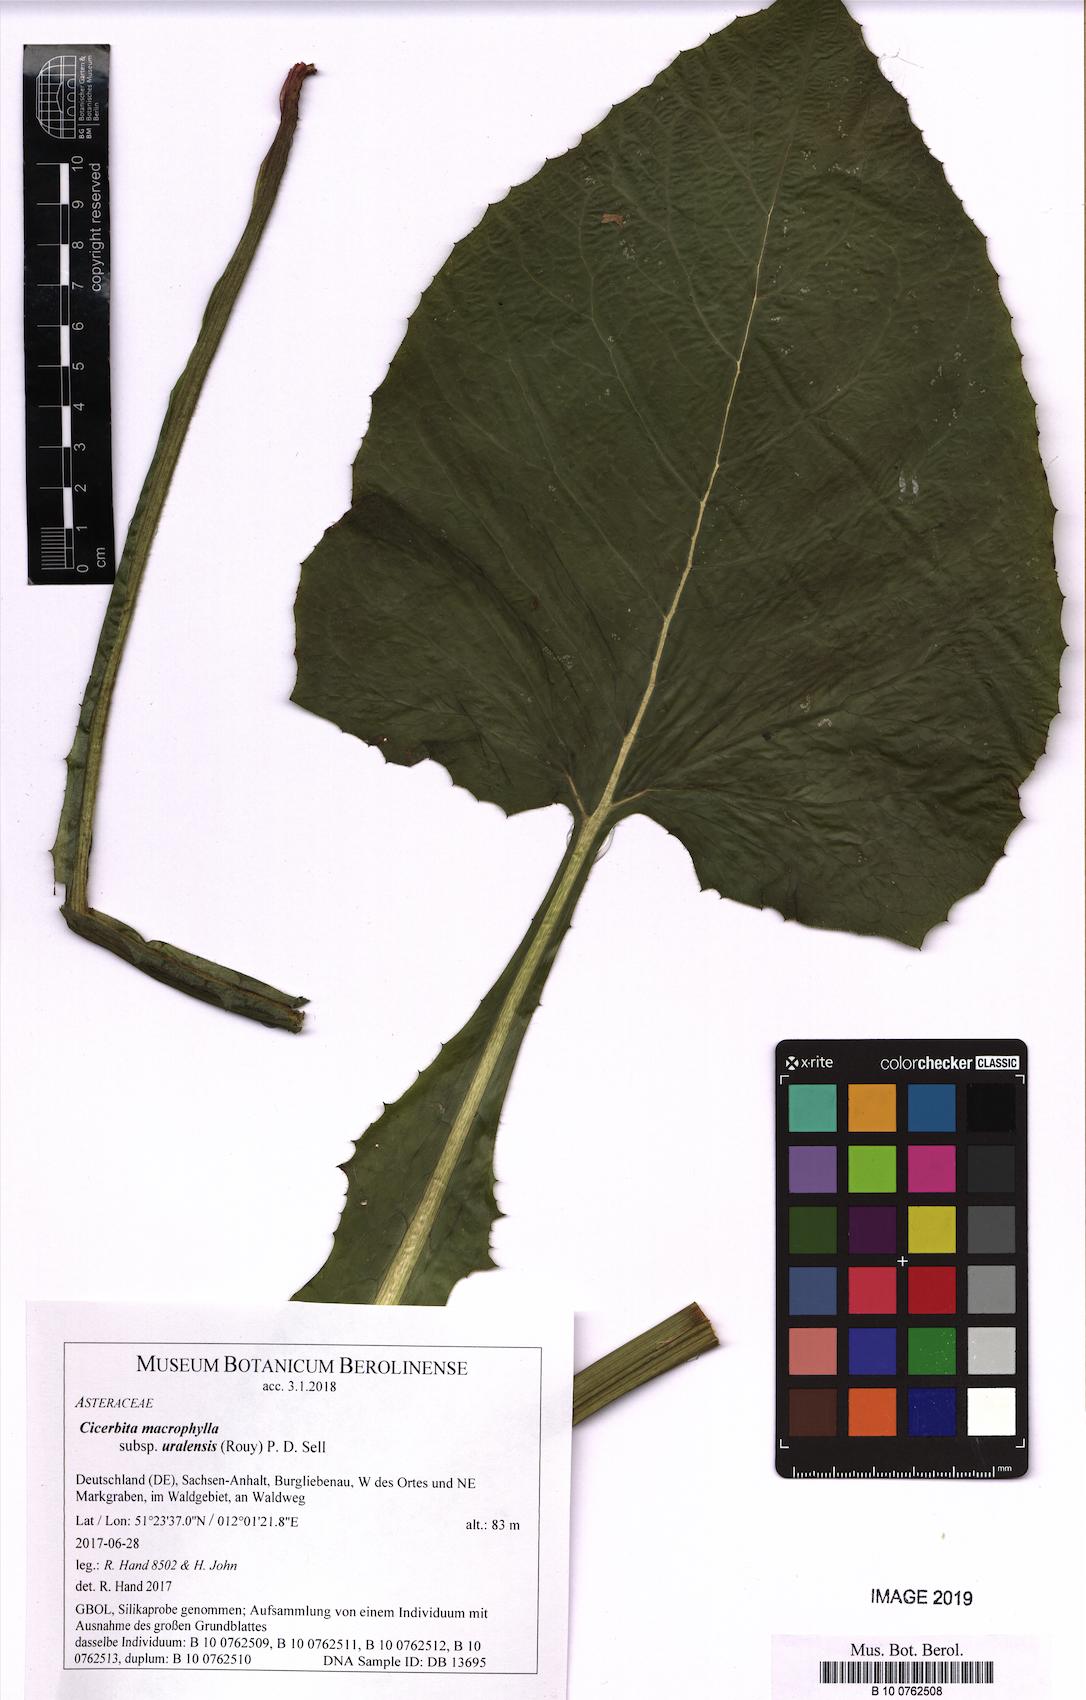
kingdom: Plantae
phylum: Tracheophyta
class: Magnoliopsida
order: Asterales
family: Asteraceae
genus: Lactuca
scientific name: Lactuca macrophylla
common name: Common blue-sow-thistle
